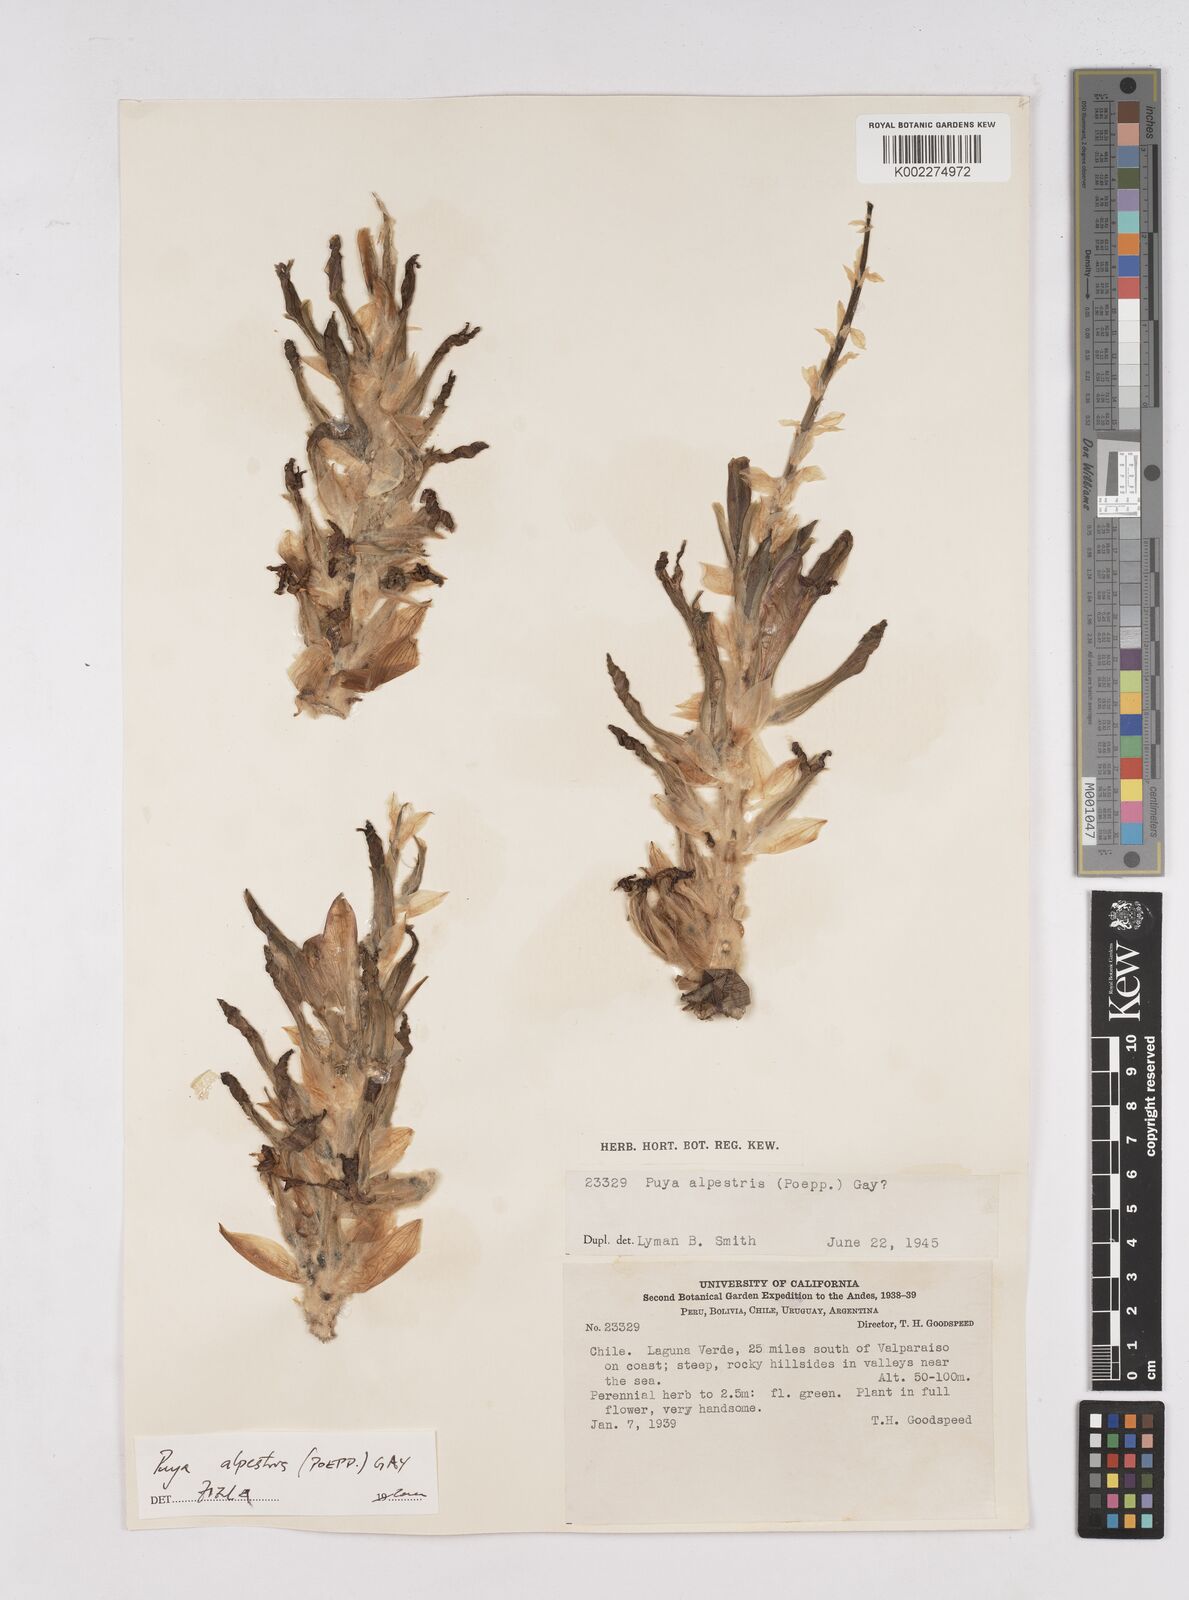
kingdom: Plantae
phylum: Tracheophyta
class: Liliopsida
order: Poales
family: Bromeliaceae
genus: Puya
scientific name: Puya berteroniana
